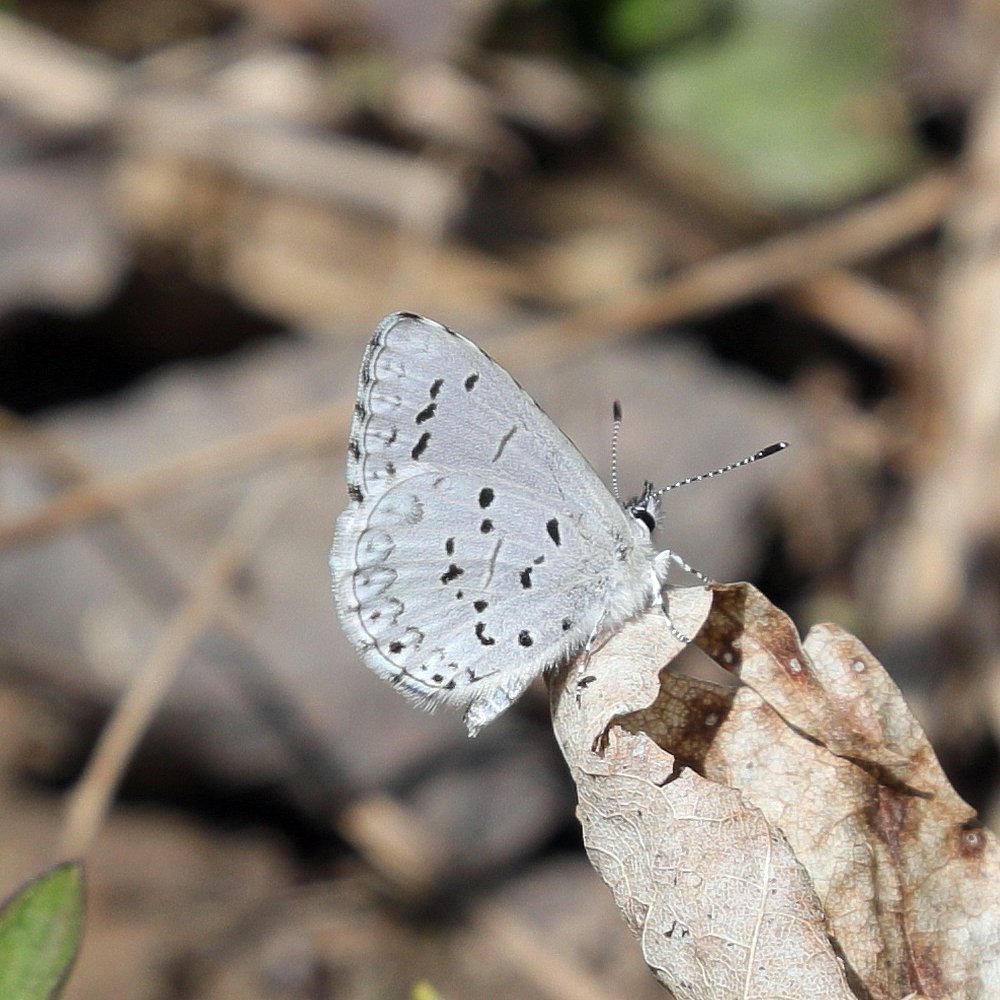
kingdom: Animalia
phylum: Arthropoda
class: Insecta
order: Lepidoptera
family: Lycaenidae
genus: Celastrina
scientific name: Celastrina lucia
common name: Northern Spring Azure
